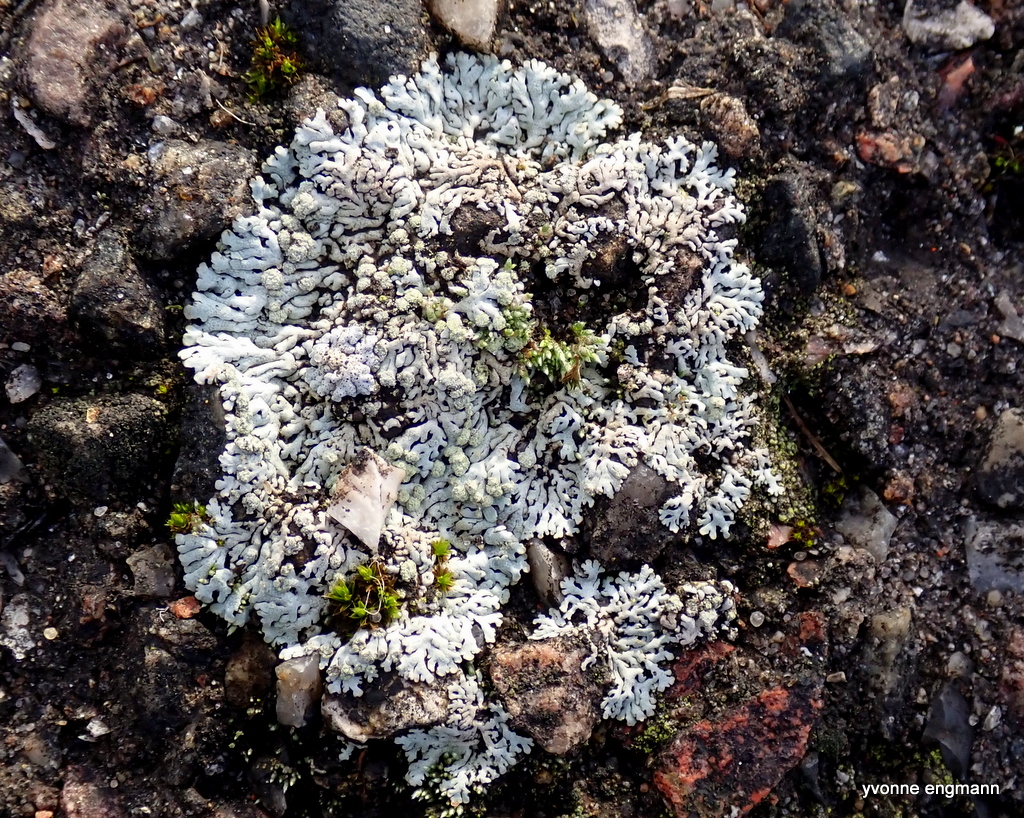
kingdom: Fungi
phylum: Ascomycota
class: Lecanoromycetes
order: Caliciales
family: Physciaceae
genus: Physcia
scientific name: Physcia caesia
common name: blågrå rosetlav
